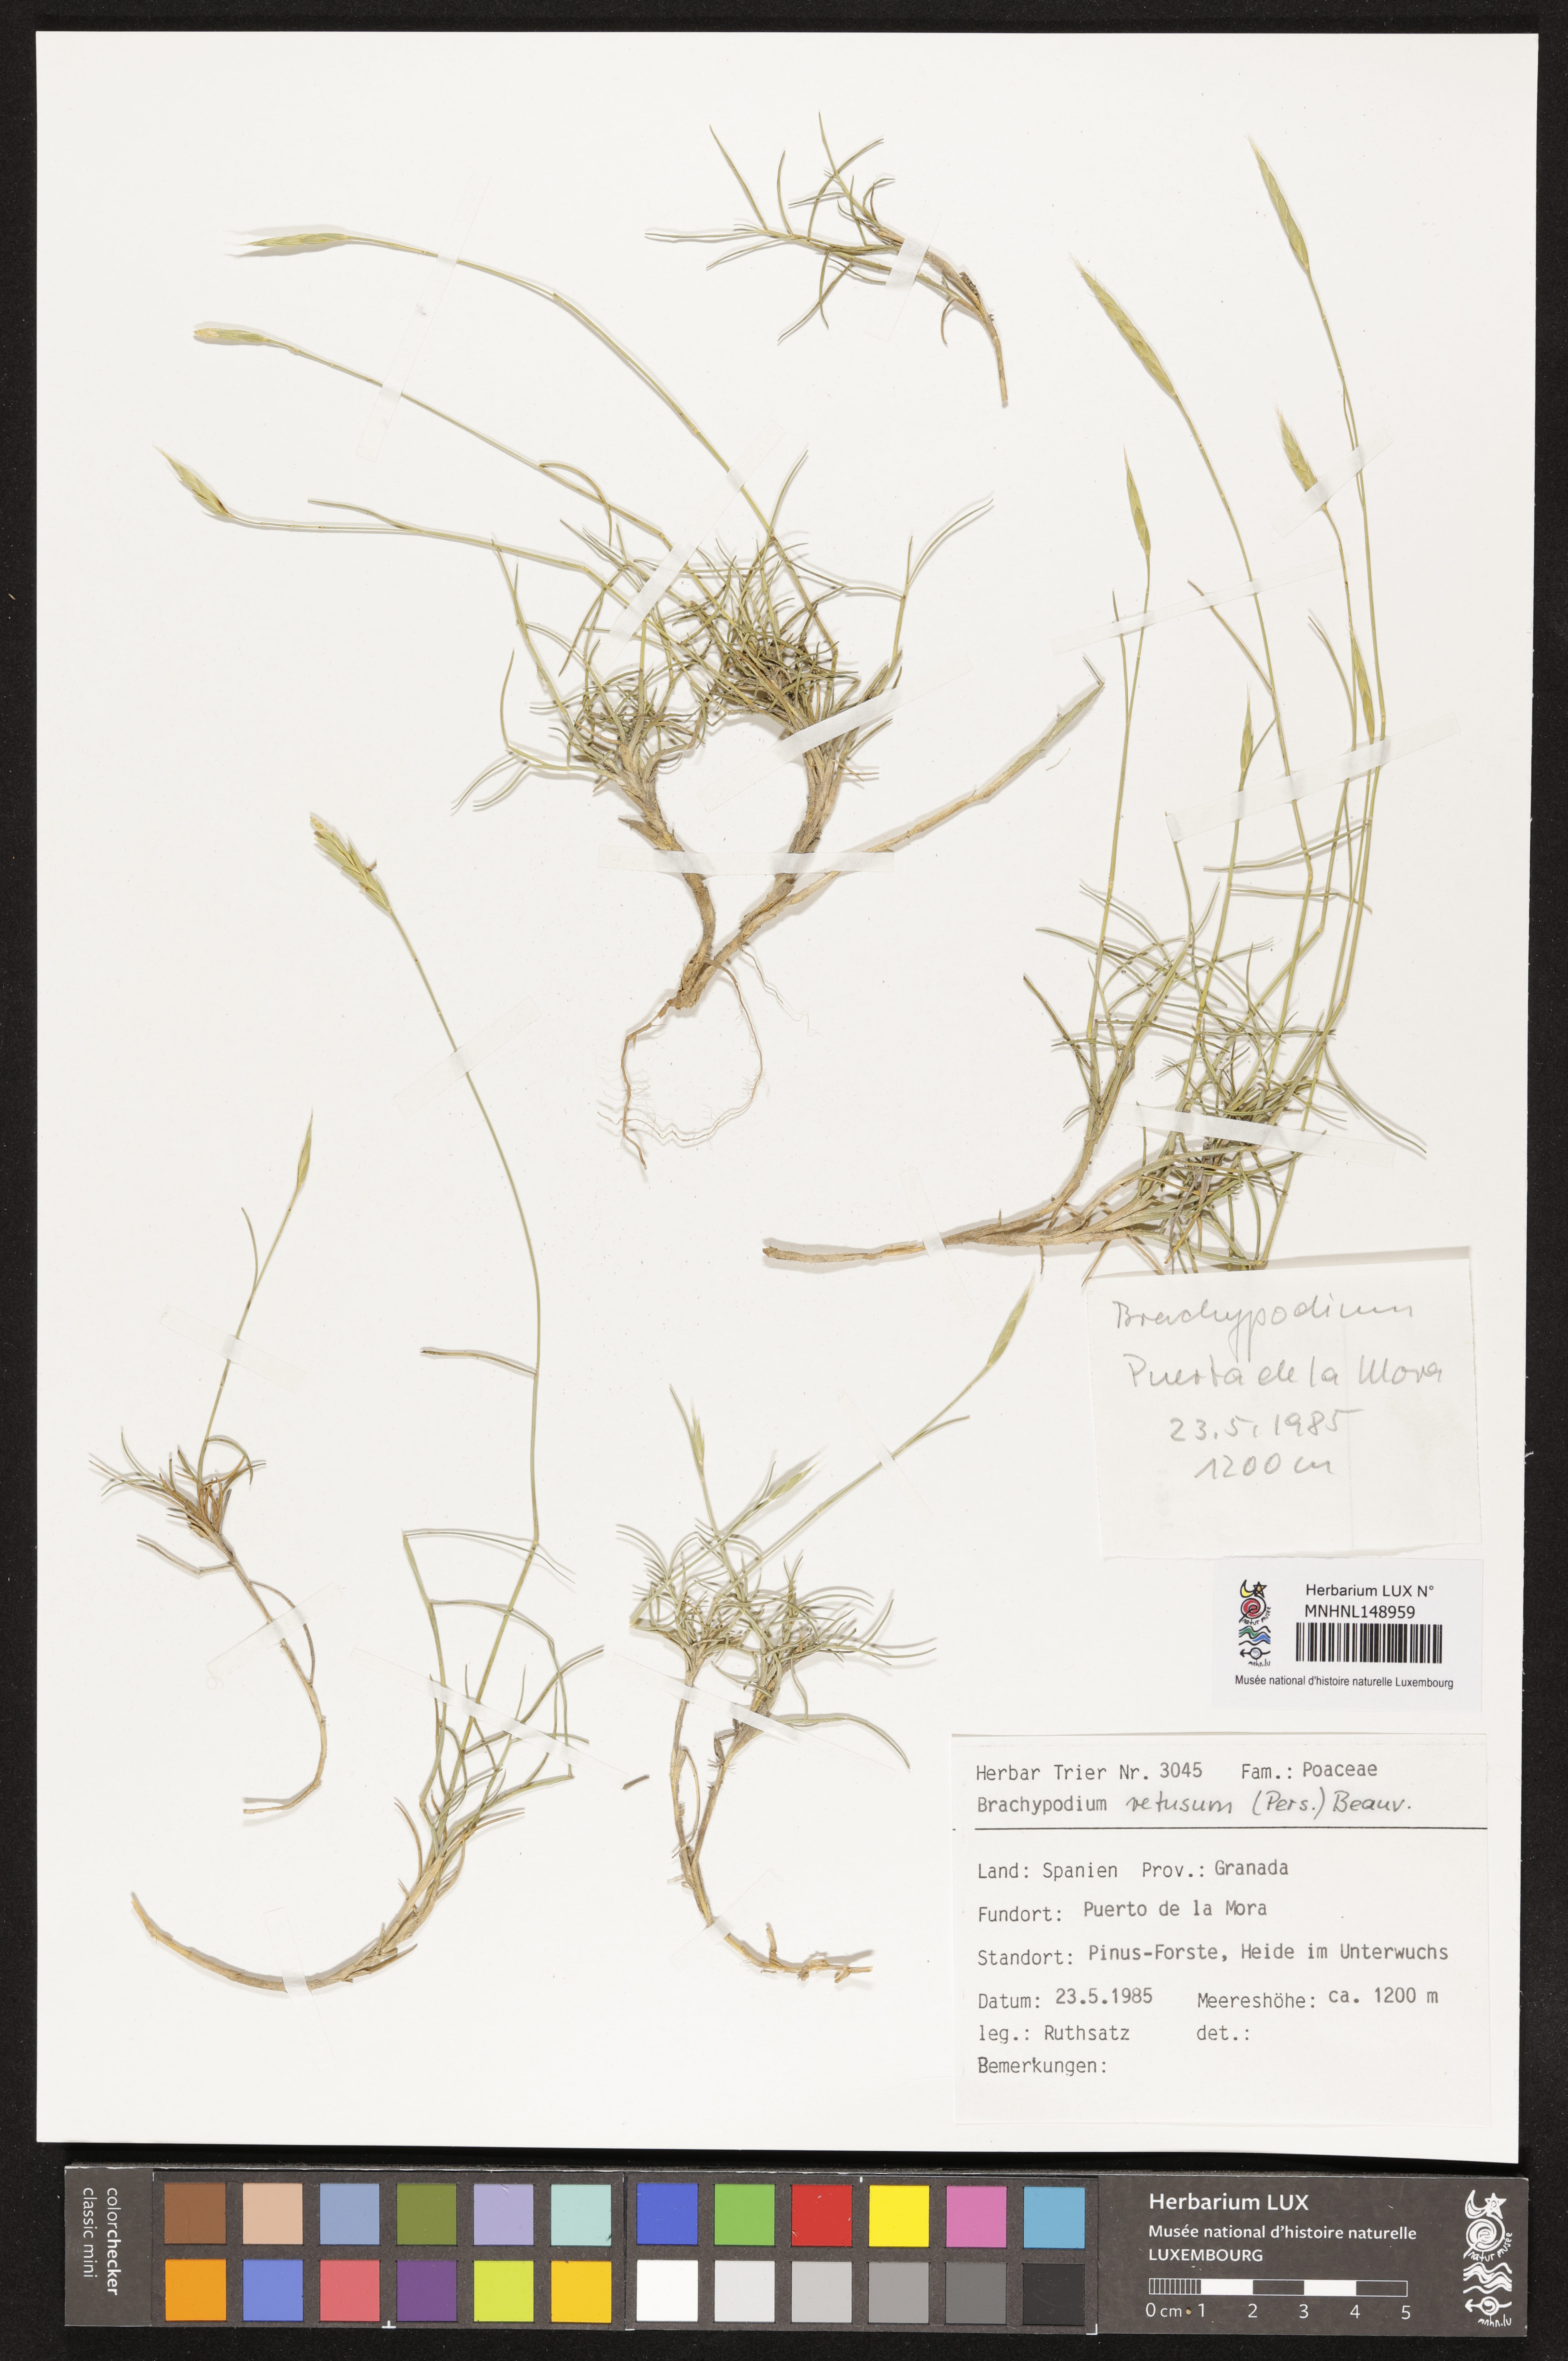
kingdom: Plantae
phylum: Tracheophyta
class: Liliopsida
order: Poales
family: Poaceae
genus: Brachypodium
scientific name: Brachypodium retusum
